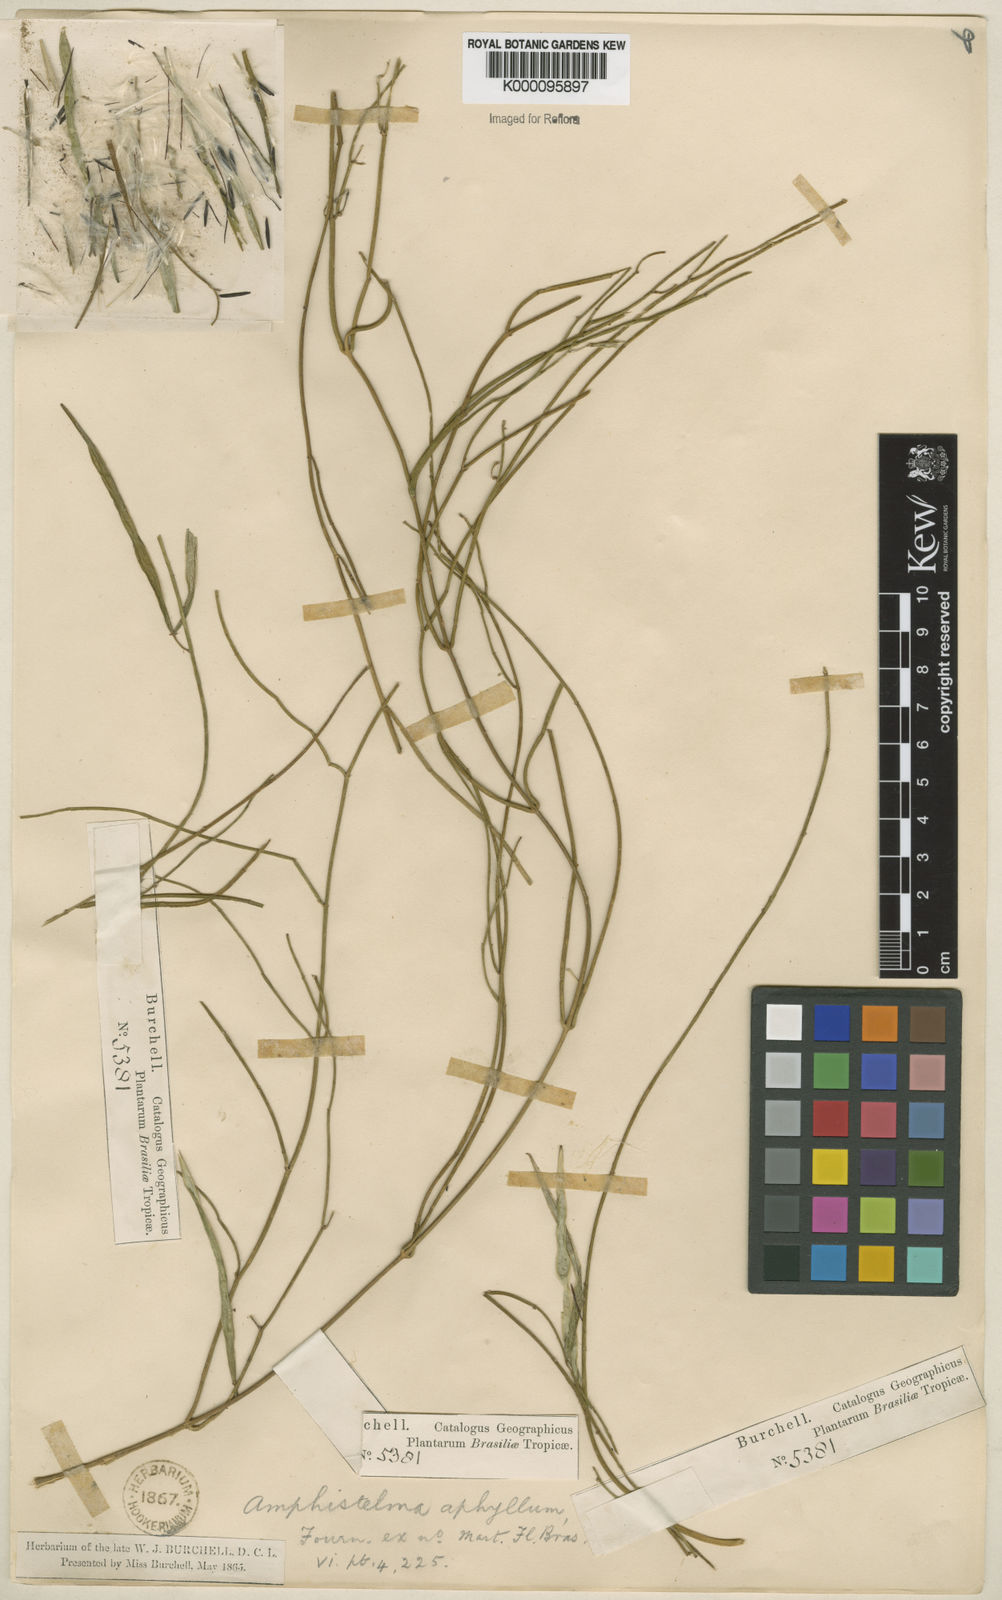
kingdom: Plantae
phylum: Tracheophyta
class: Magnoliopsida
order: Gentianales
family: Apocynaceae
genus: Orthosia
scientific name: Orthosia scoparia
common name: Leafless swallow-wort
